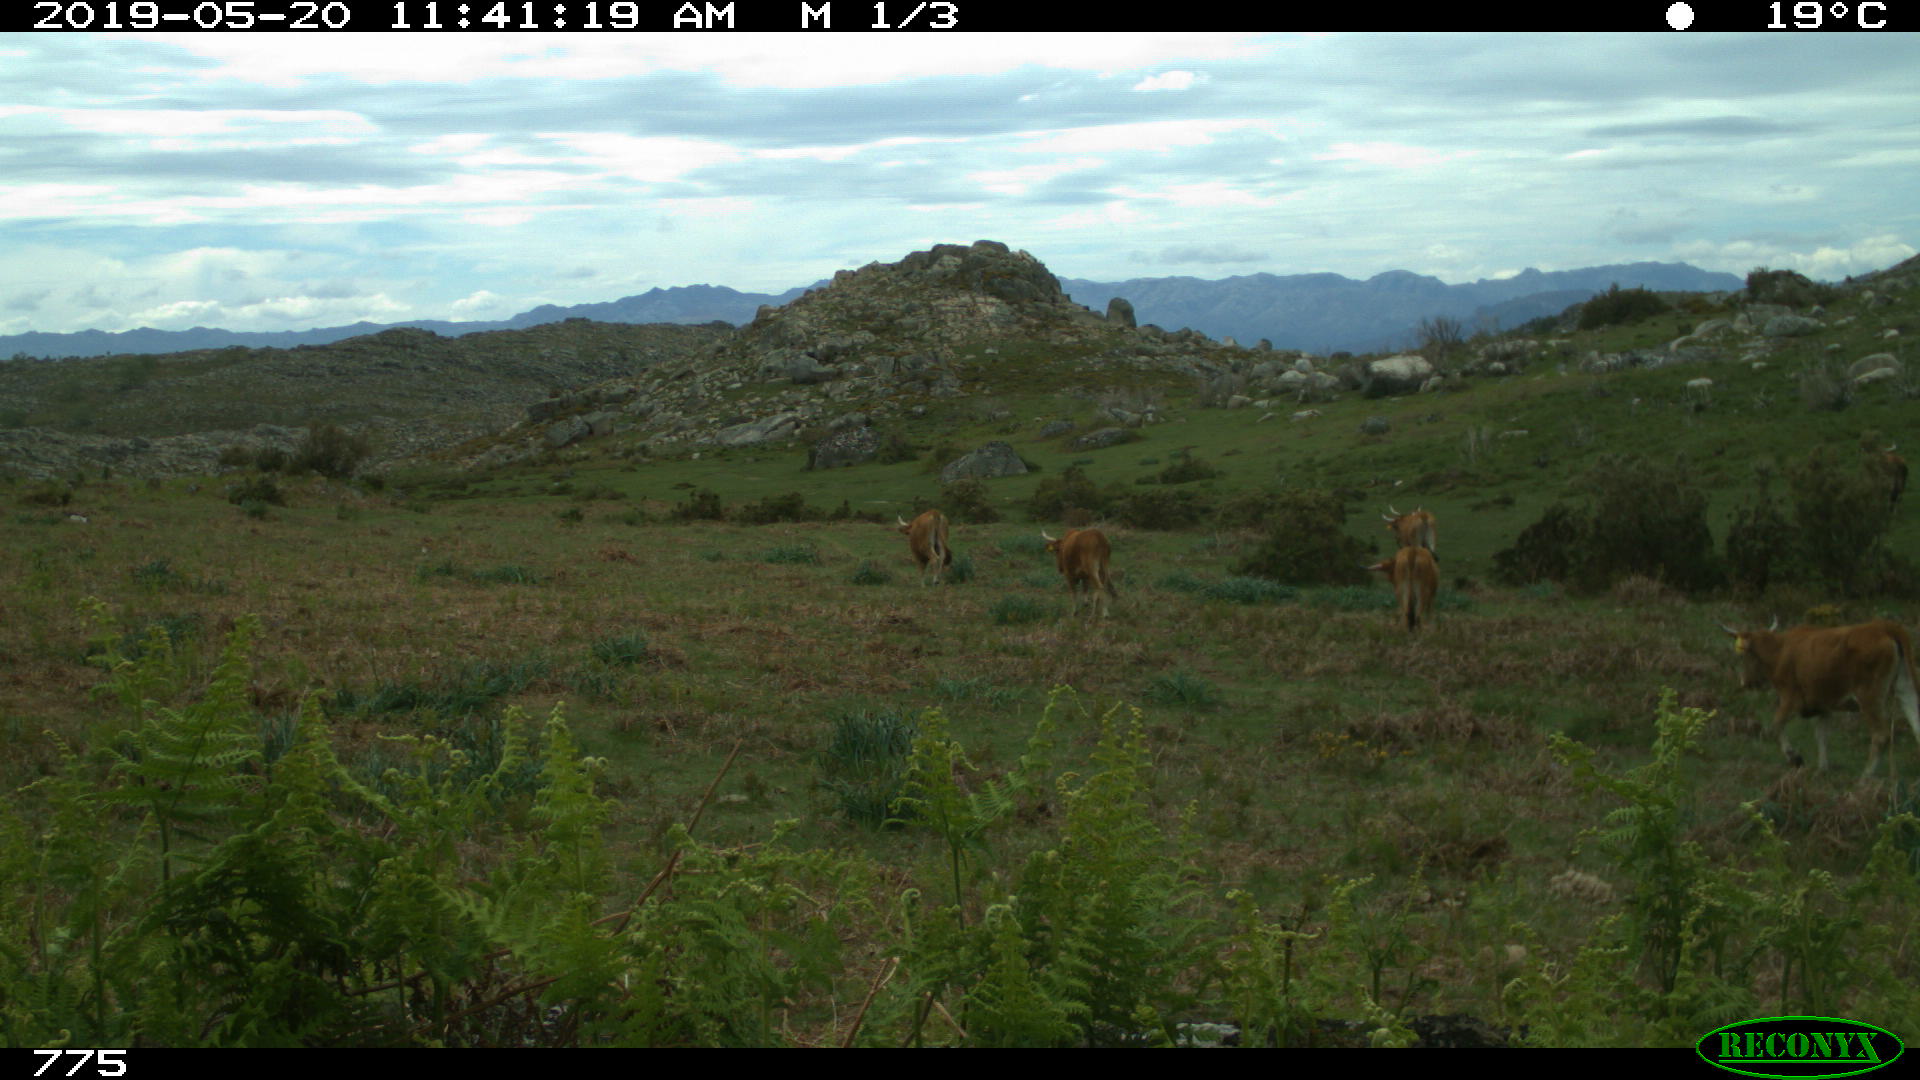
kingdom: Animalia
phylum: Chordata
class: Mammalia
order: Artiodactyla
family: Bovidae
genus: Bos
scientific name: Bos taurus
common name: Domesticated cattle
